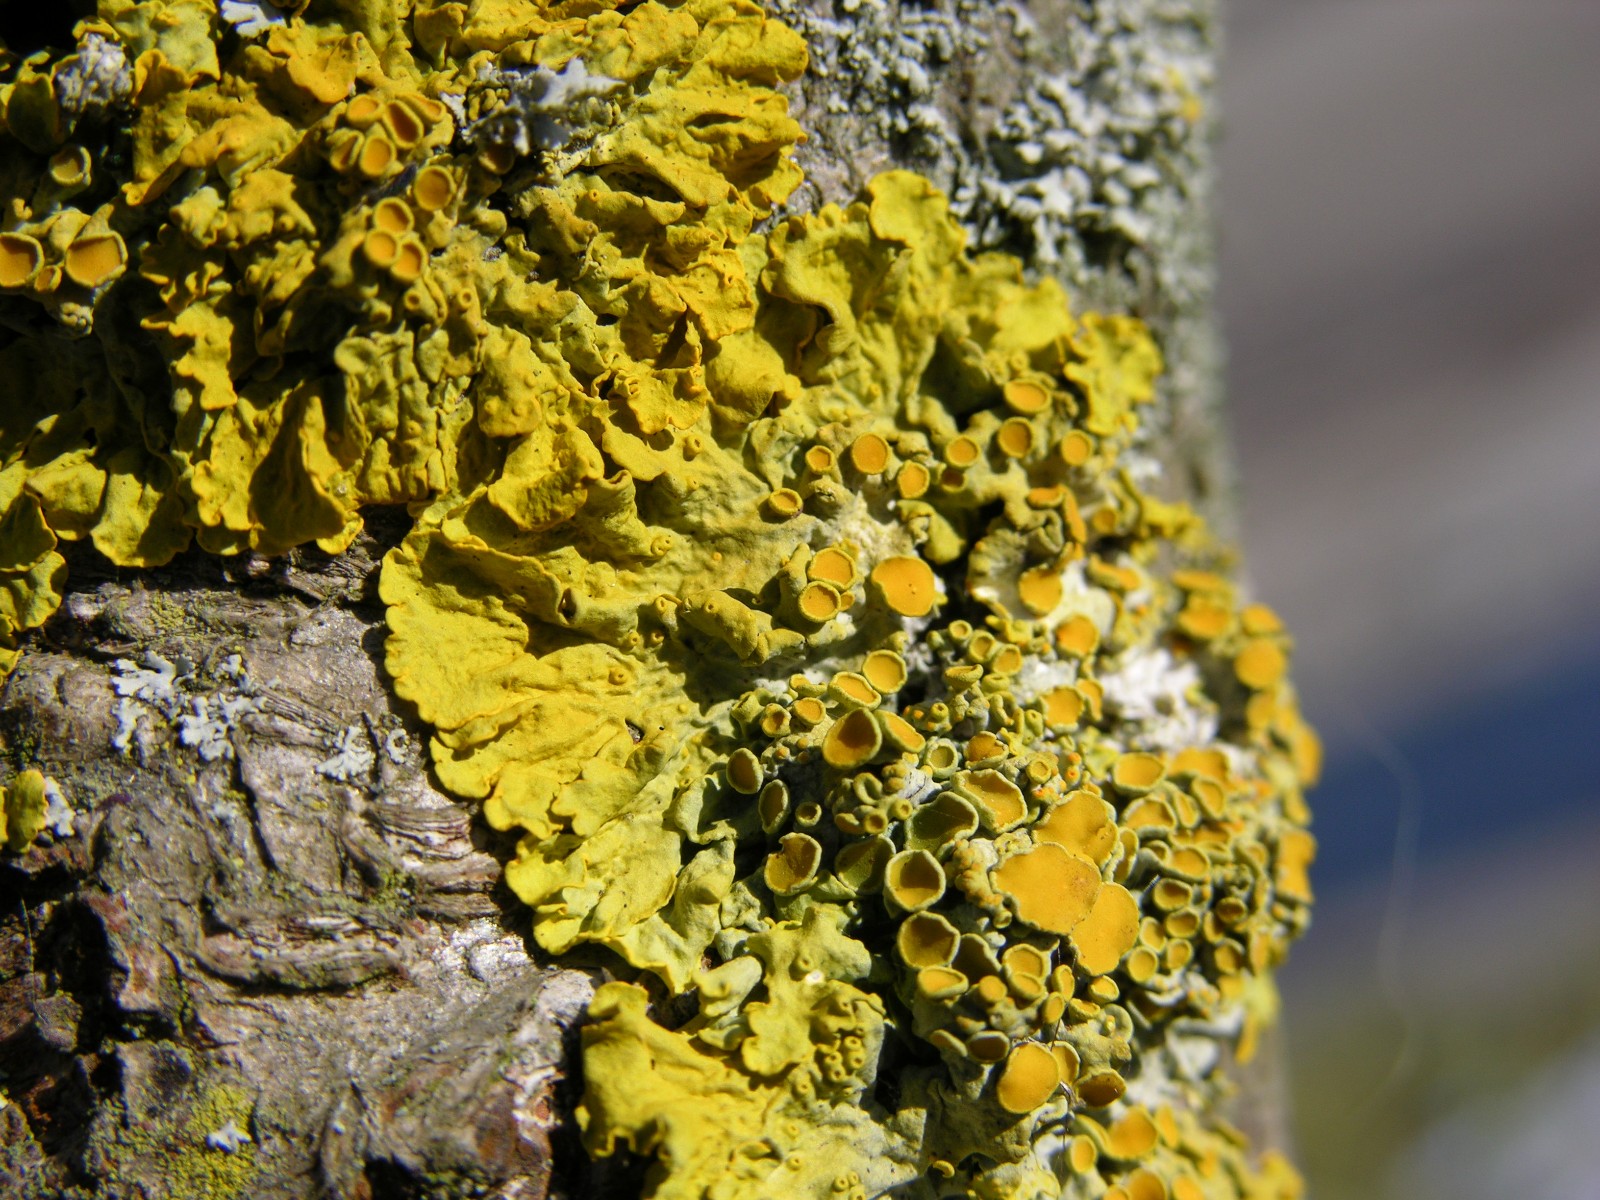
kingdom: Fungi
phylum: Ascomycota
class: Lecanoromycetes
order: Teloschistales
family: Teloschistaceae
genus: Xanthoria
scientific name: Xanthoria parietina
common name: almindelig væggelav
